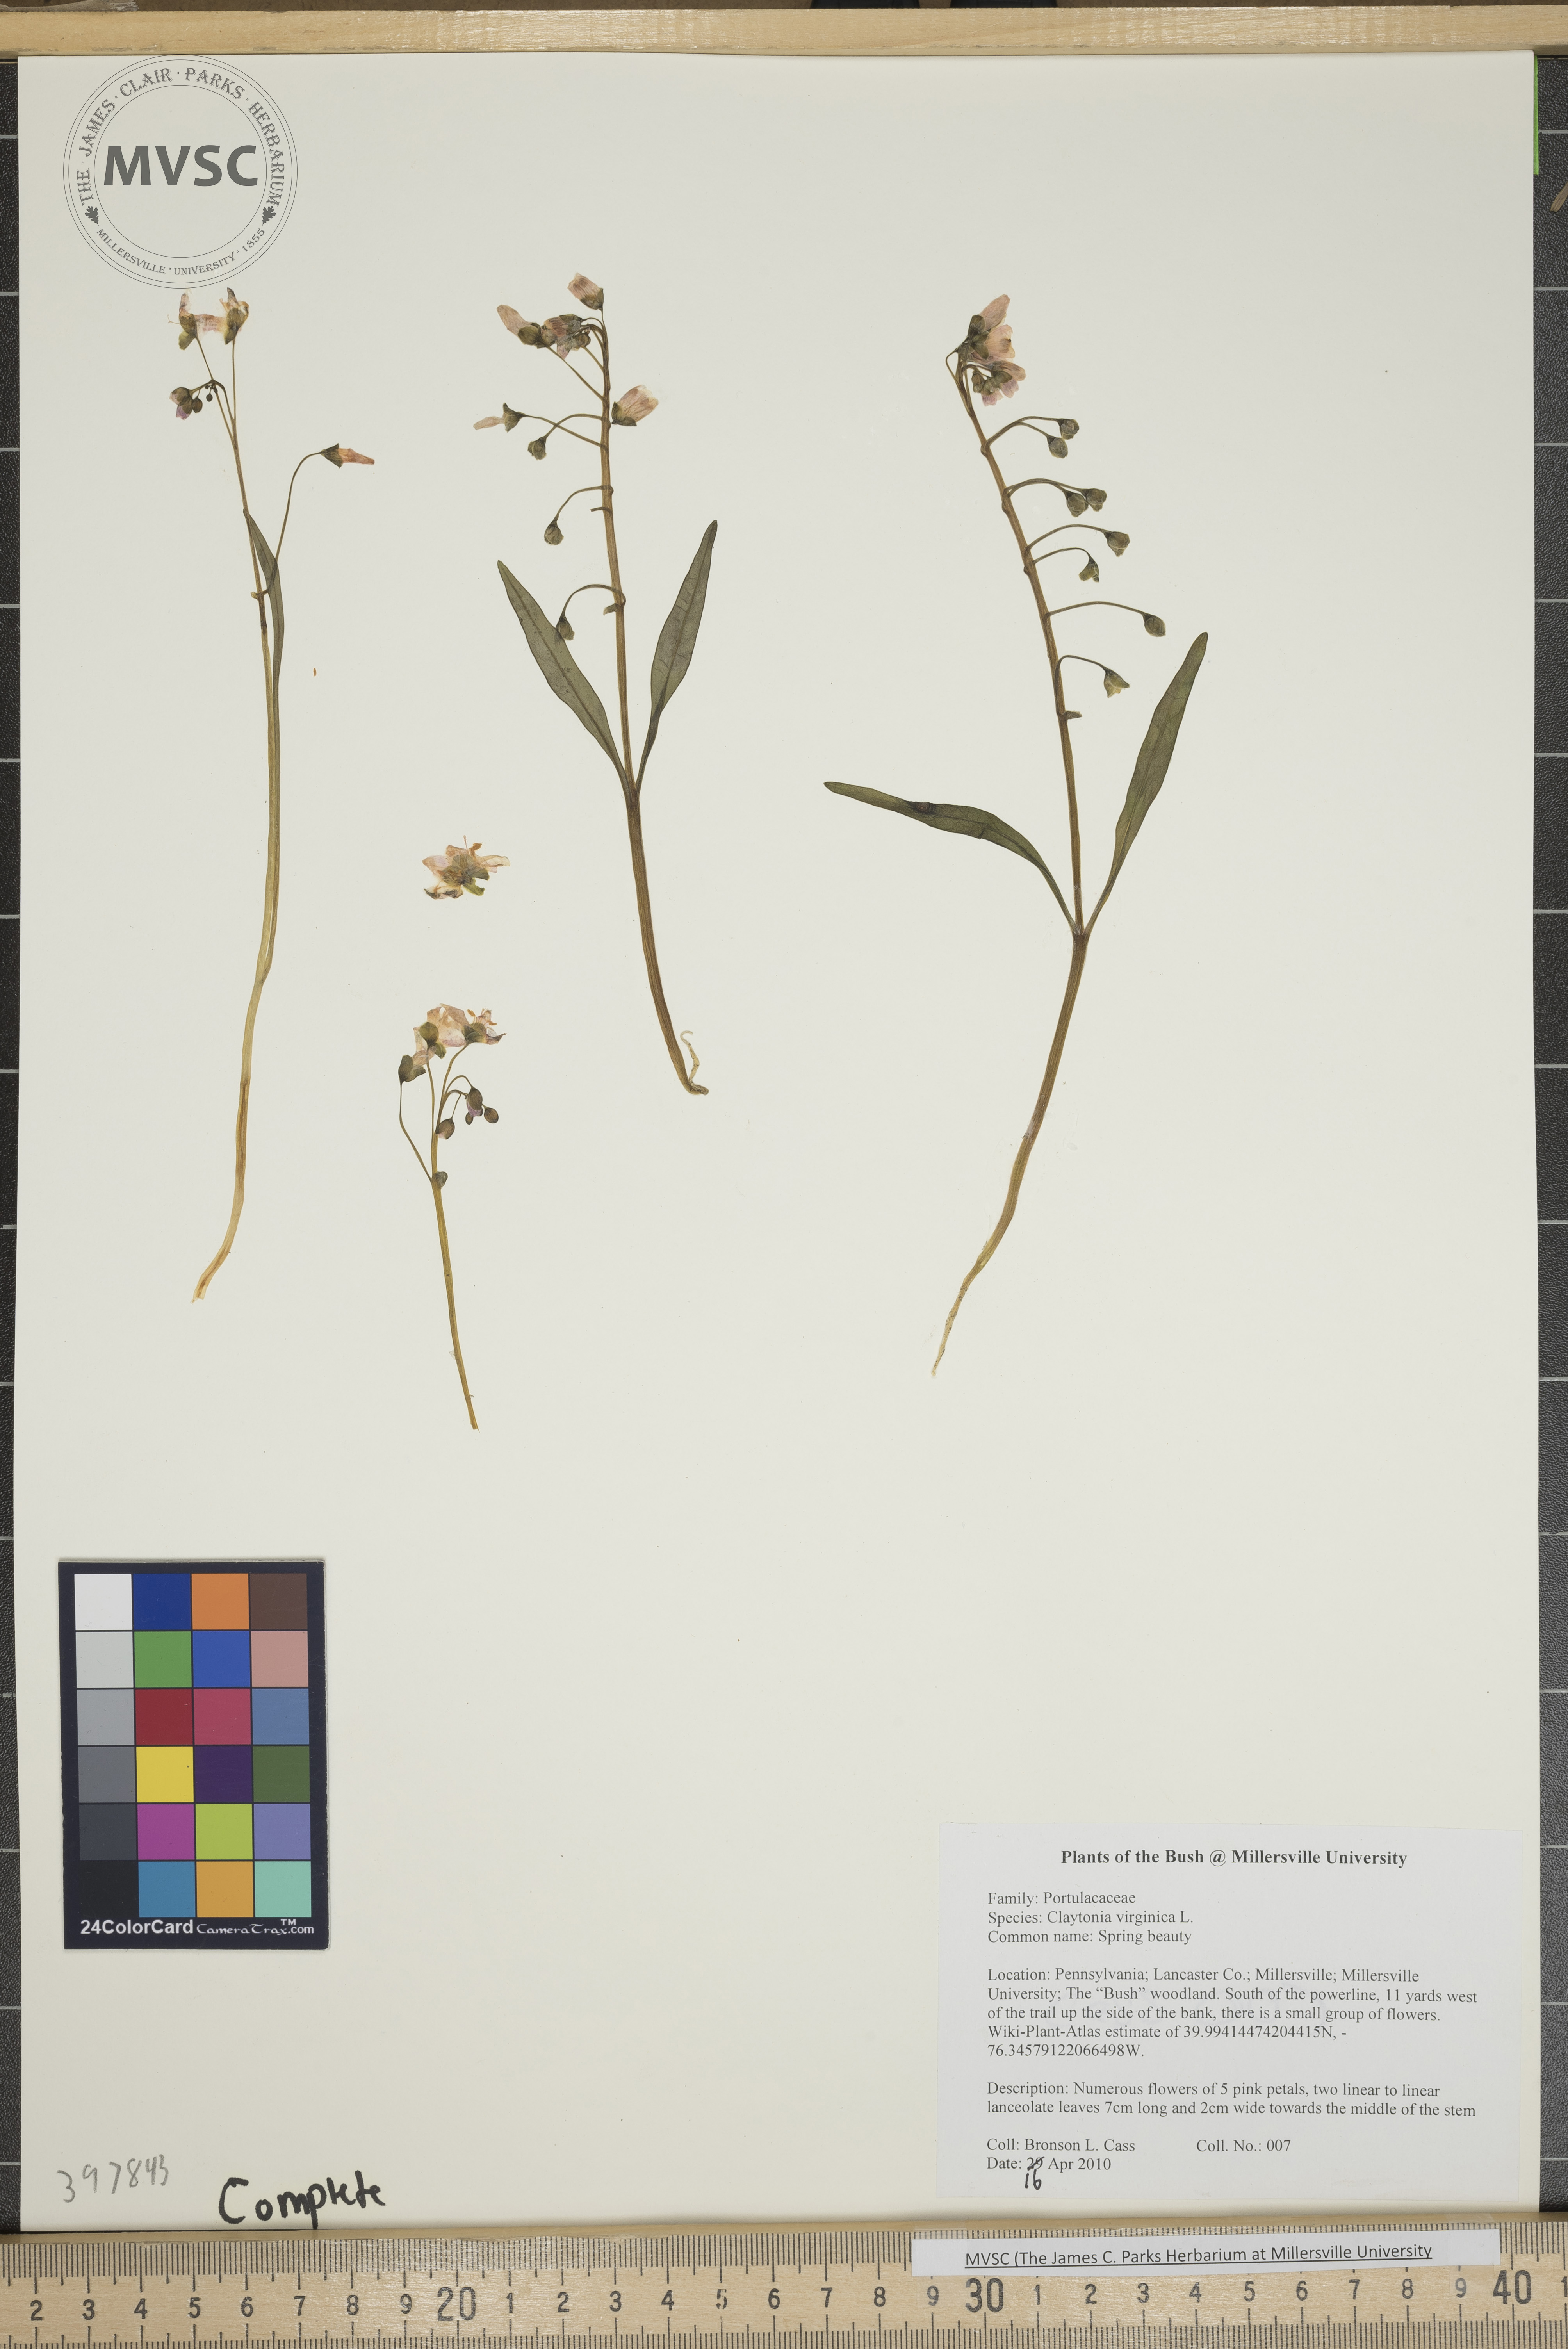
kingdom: Plantae
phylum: Tracheophyta
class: Magnoliopsida
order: Caryophyllales
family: Montiaceae
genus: Claytonia
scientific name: Claytonia virginica
